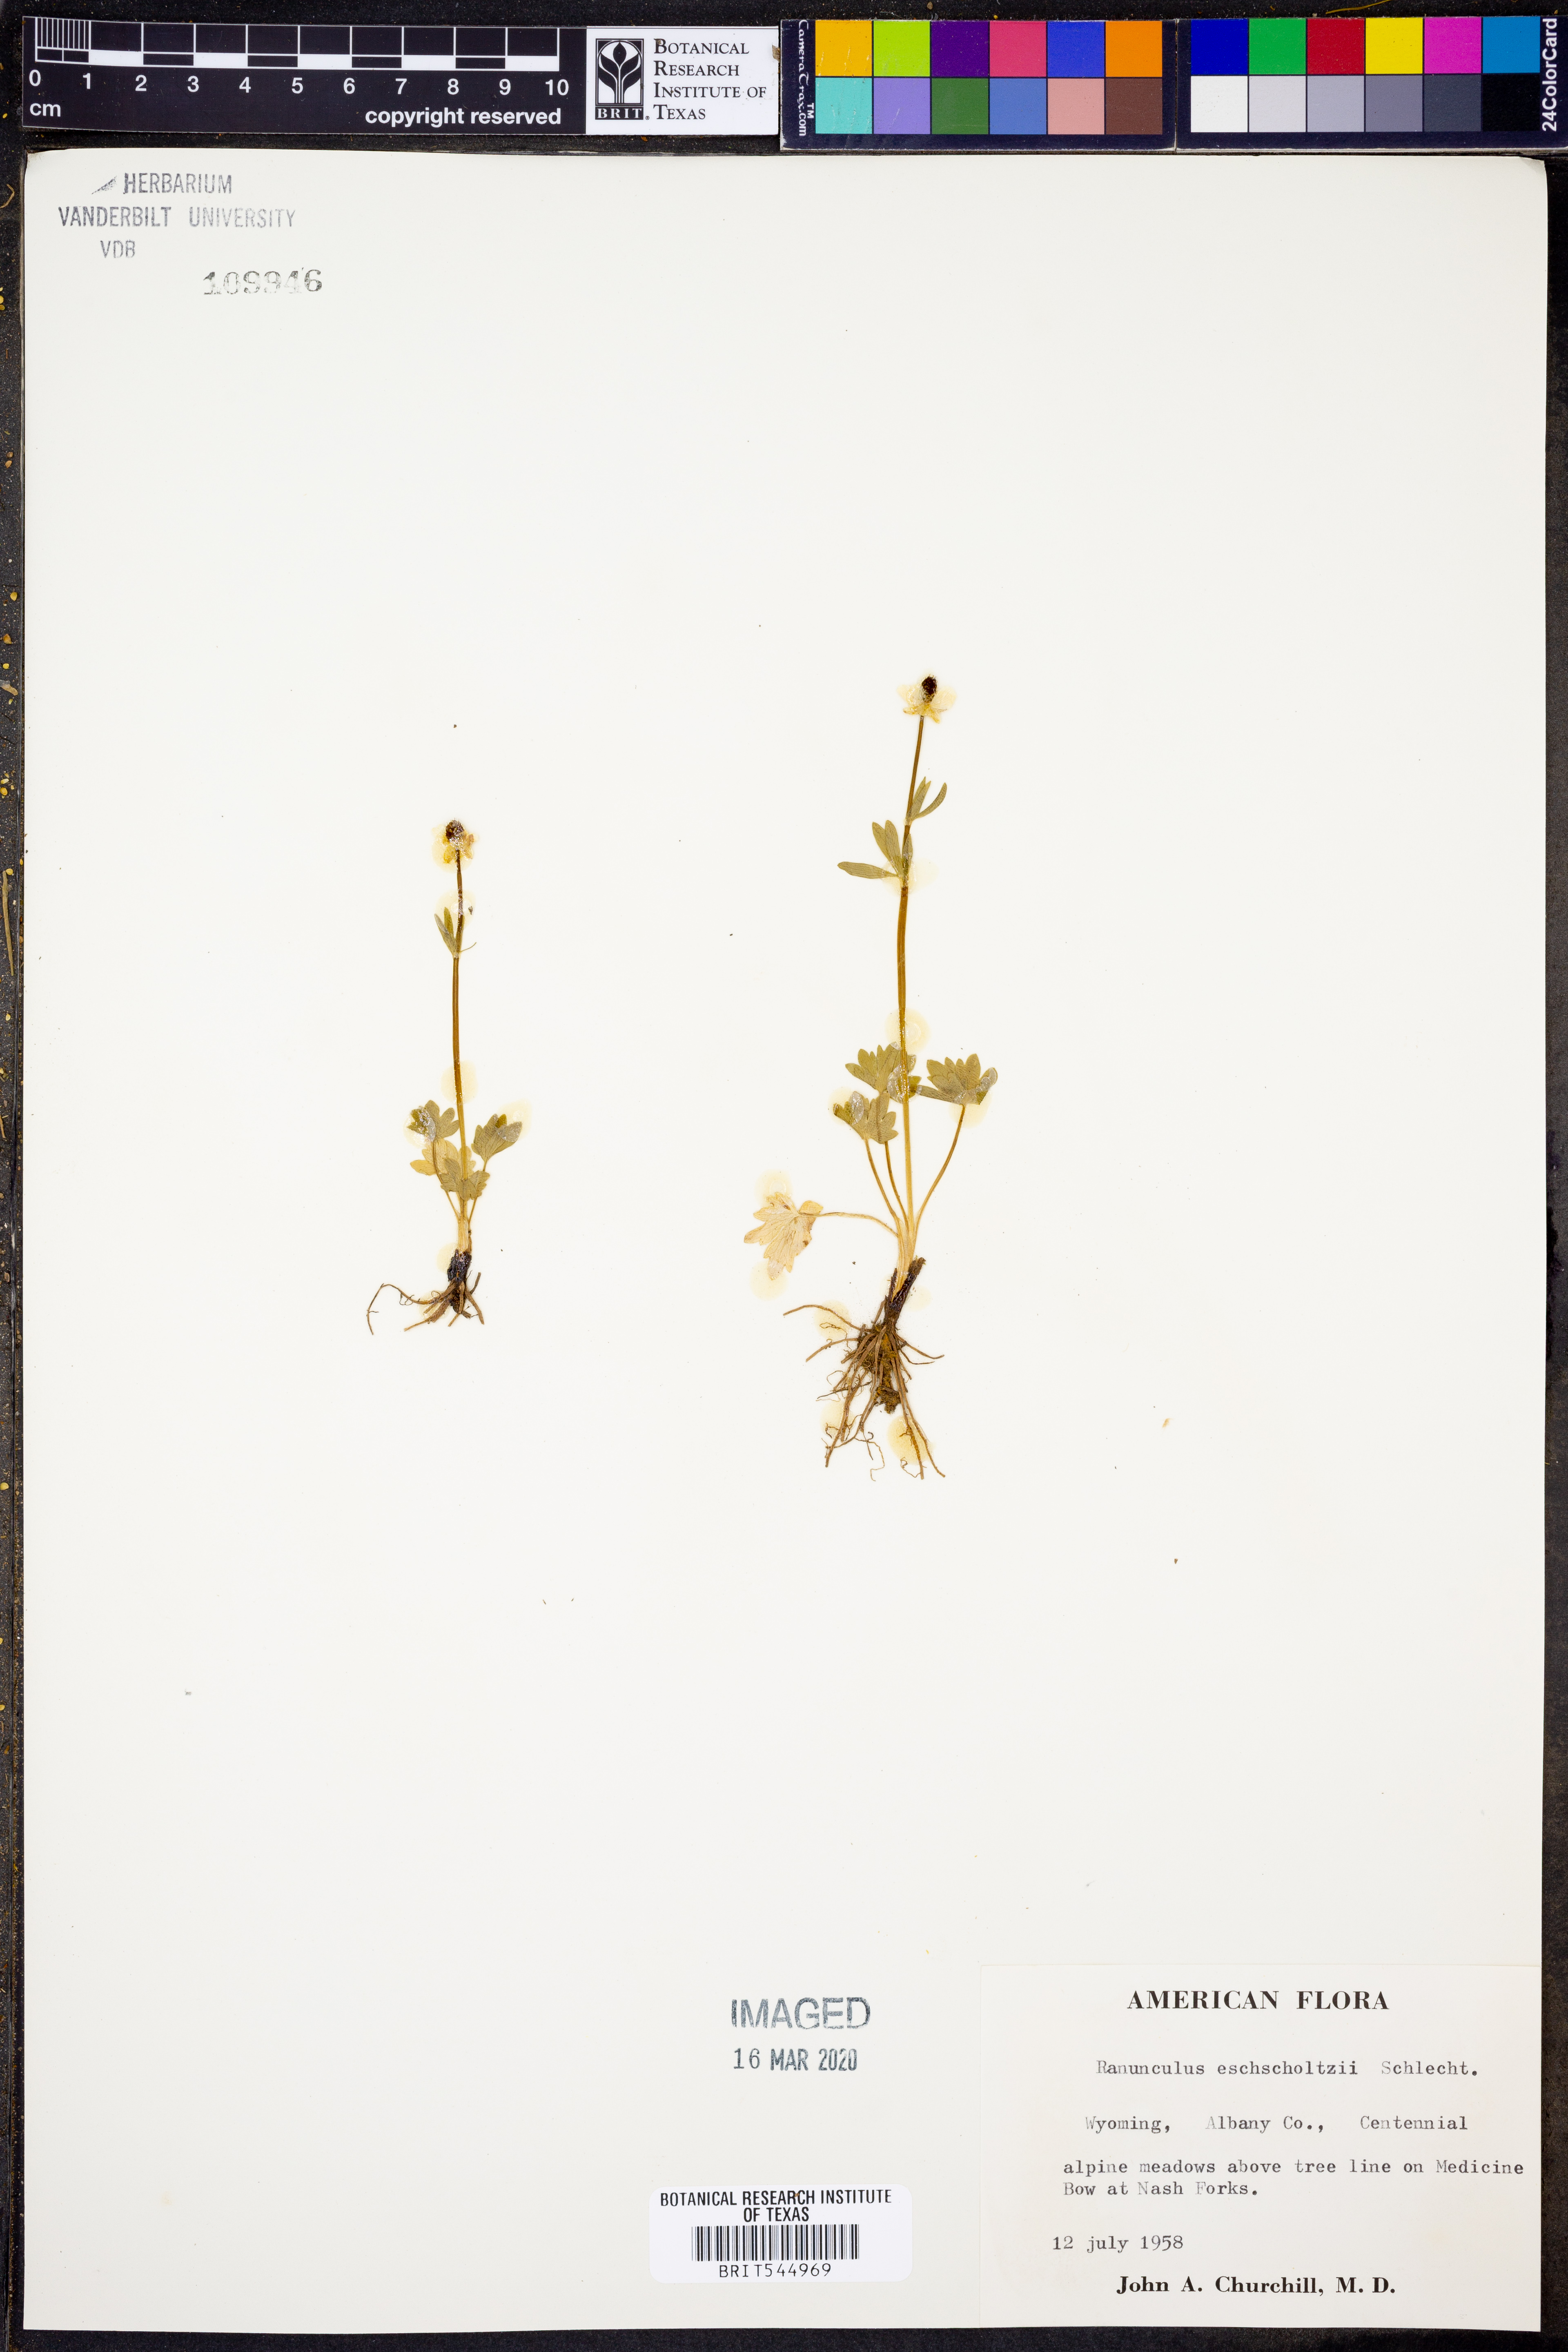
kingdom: Plantae
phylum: Tracheophyta
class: Magnoliopsida
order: Ranunculales
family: Ranunculaceae
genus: Ranunculus
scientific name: Ranunculus eschscholtzii
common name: Eschscholtz's buttercup
